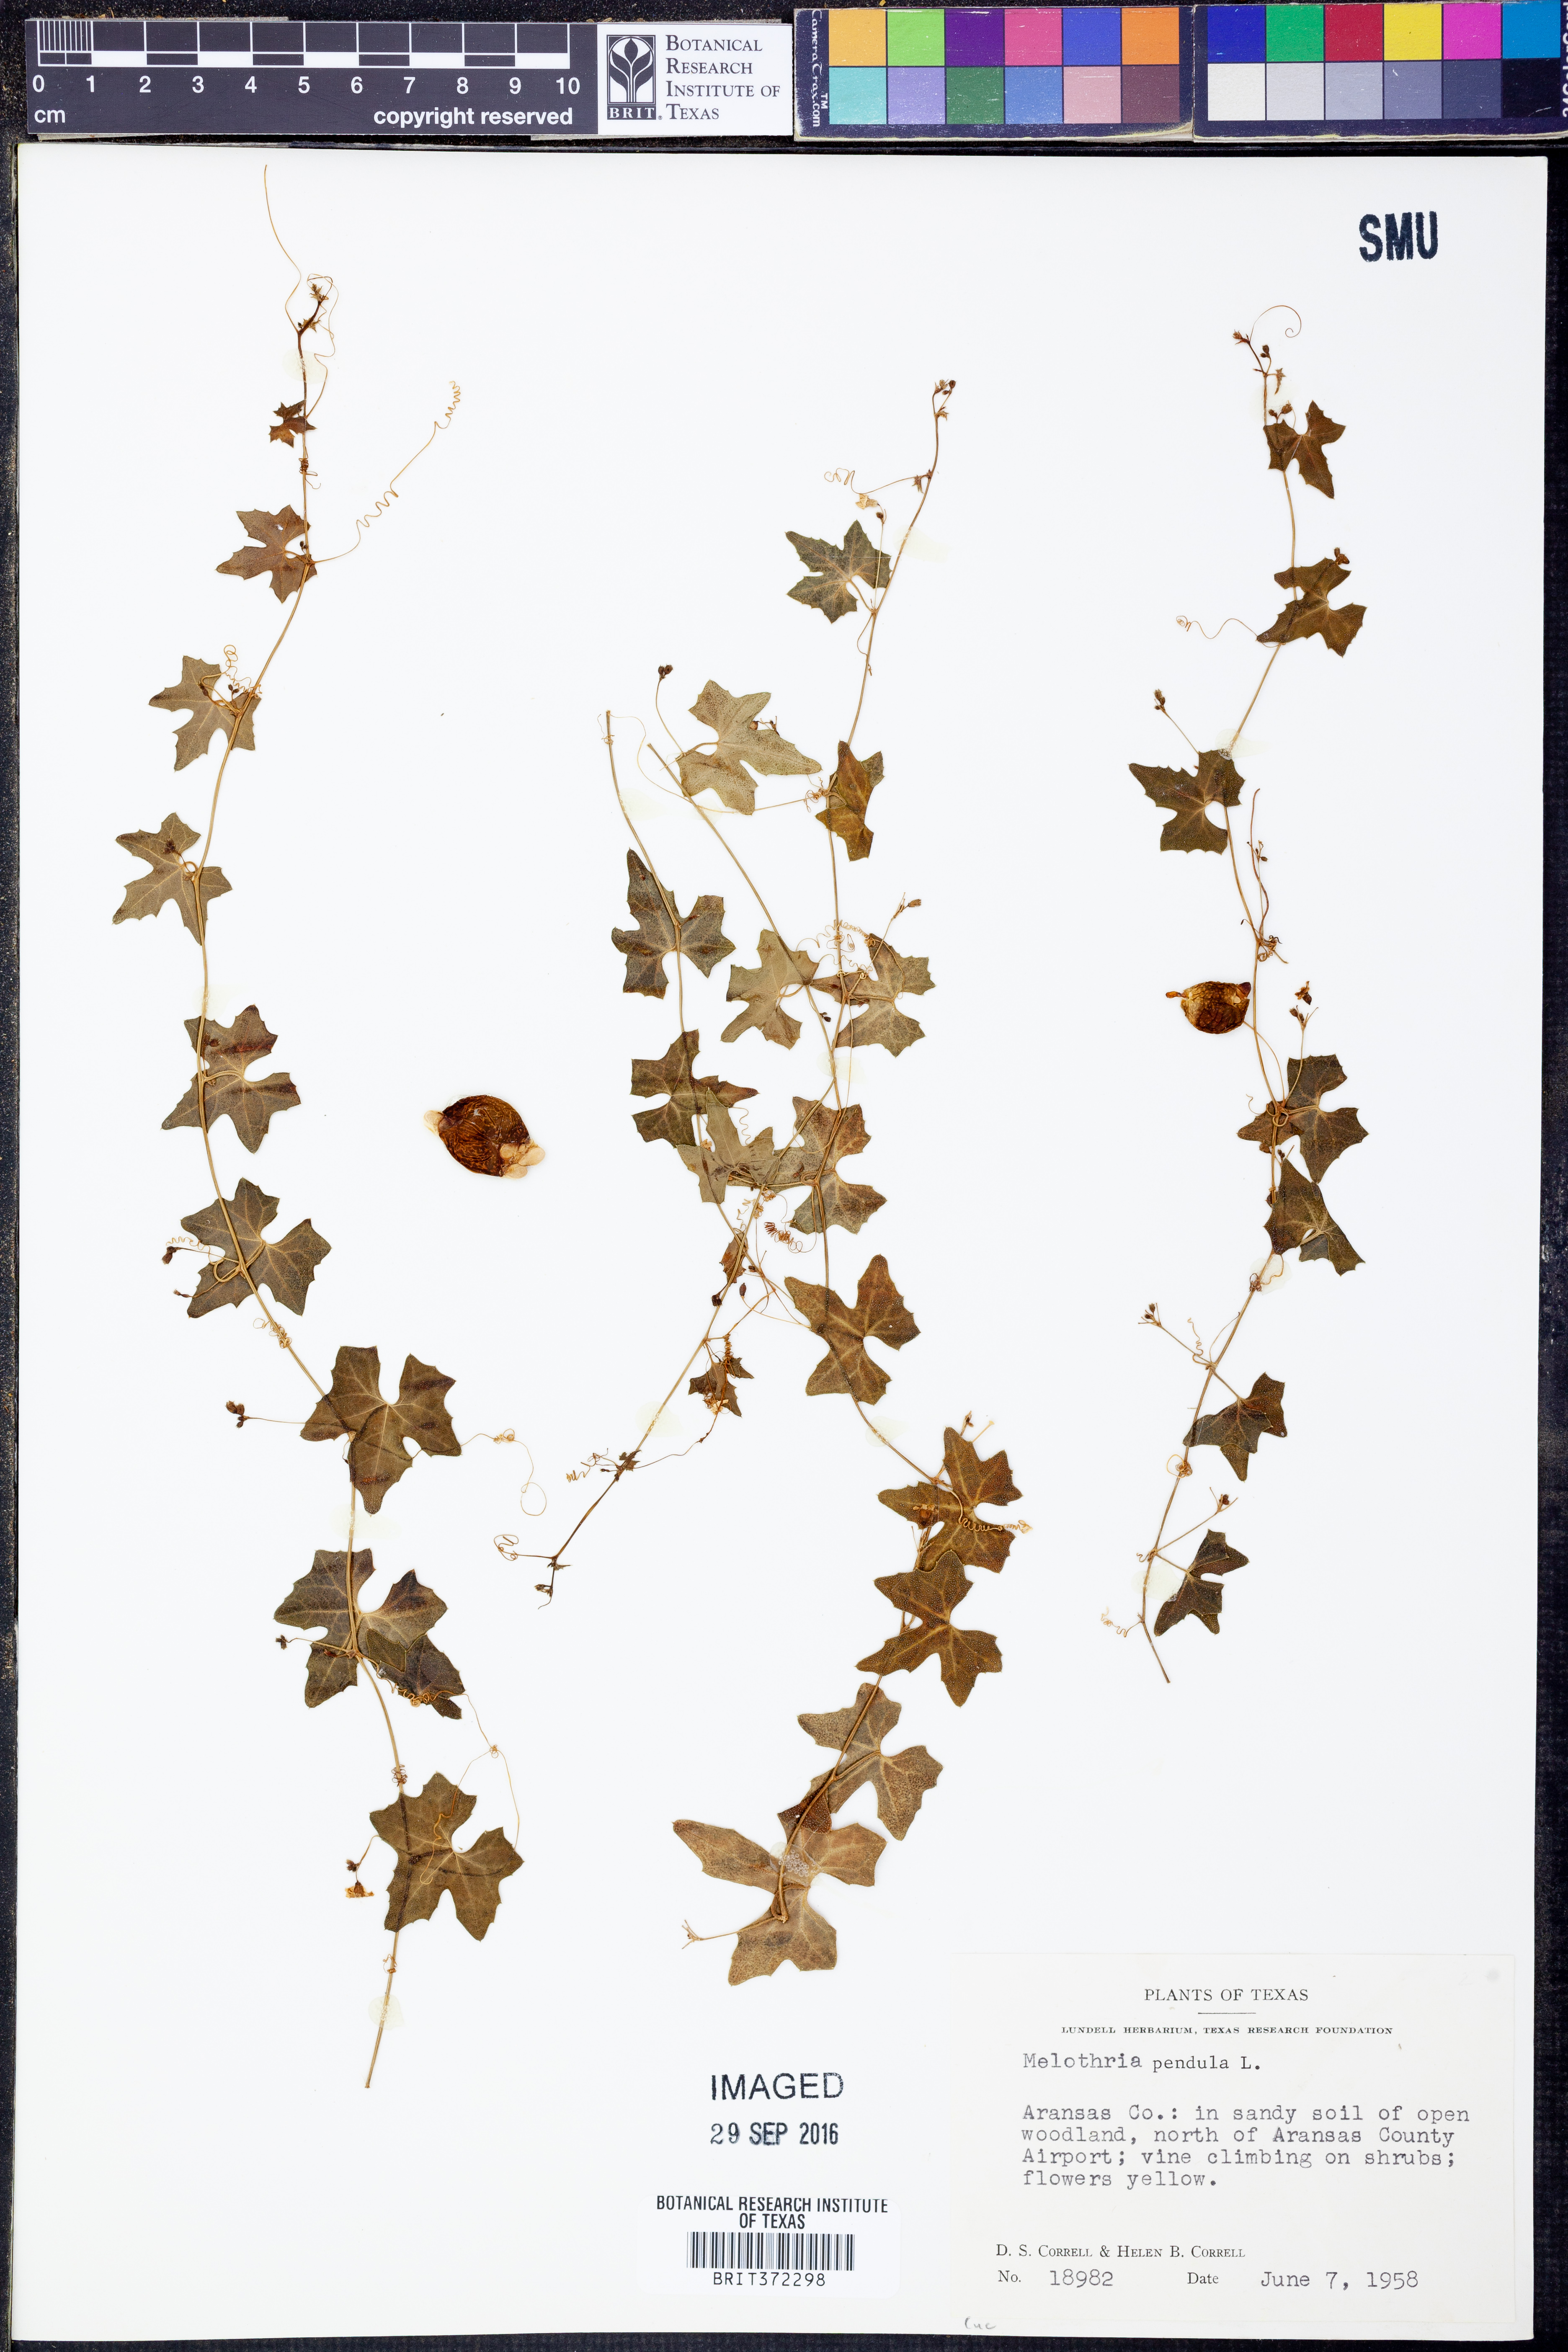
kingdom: Plantae
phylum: Tracheophyta
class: Magnoliopsida
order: Cucurbitales
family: Cucurbitaceae
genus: Melothria
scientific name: Melothria pendula
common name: Creeping-cucumber
